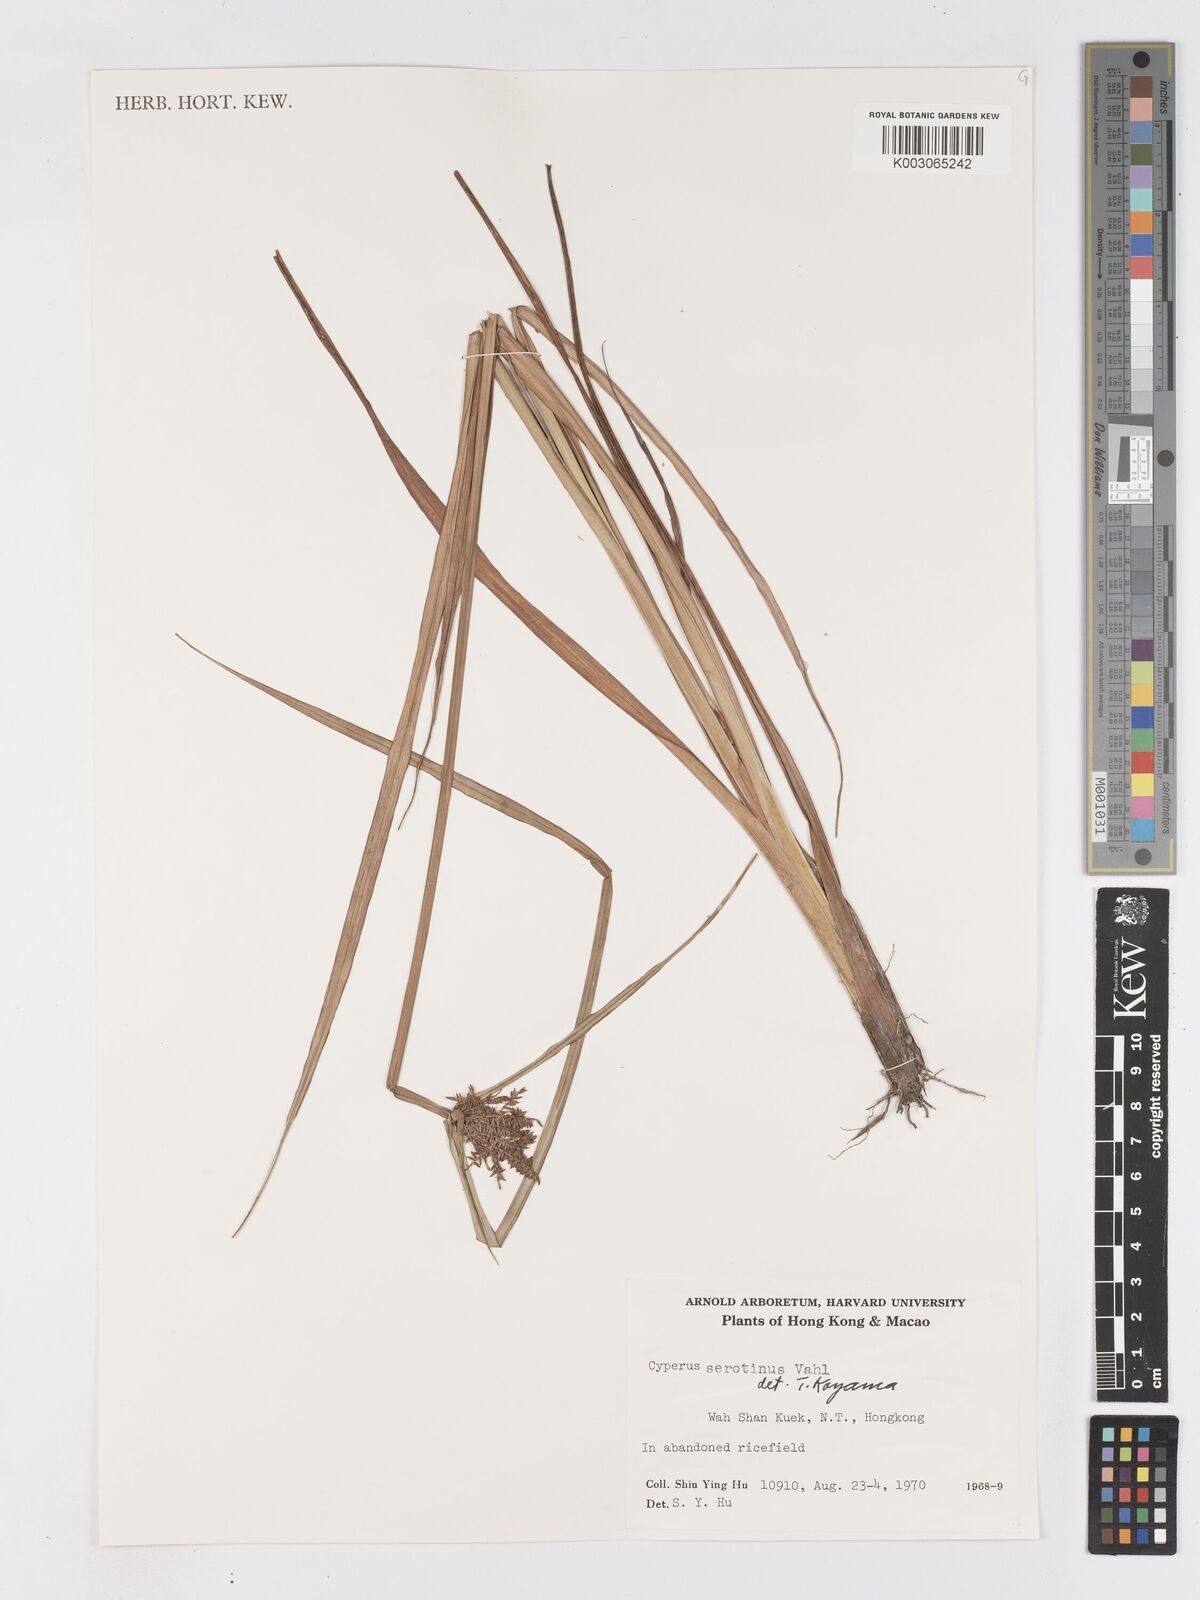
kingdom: Plantae
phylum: Tracheophyta
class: Liliopsida
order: Poales
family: Cyperaceae
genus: Cyperus
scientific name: Cyperus serotinus
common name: Tidalmarsh flatsedge
